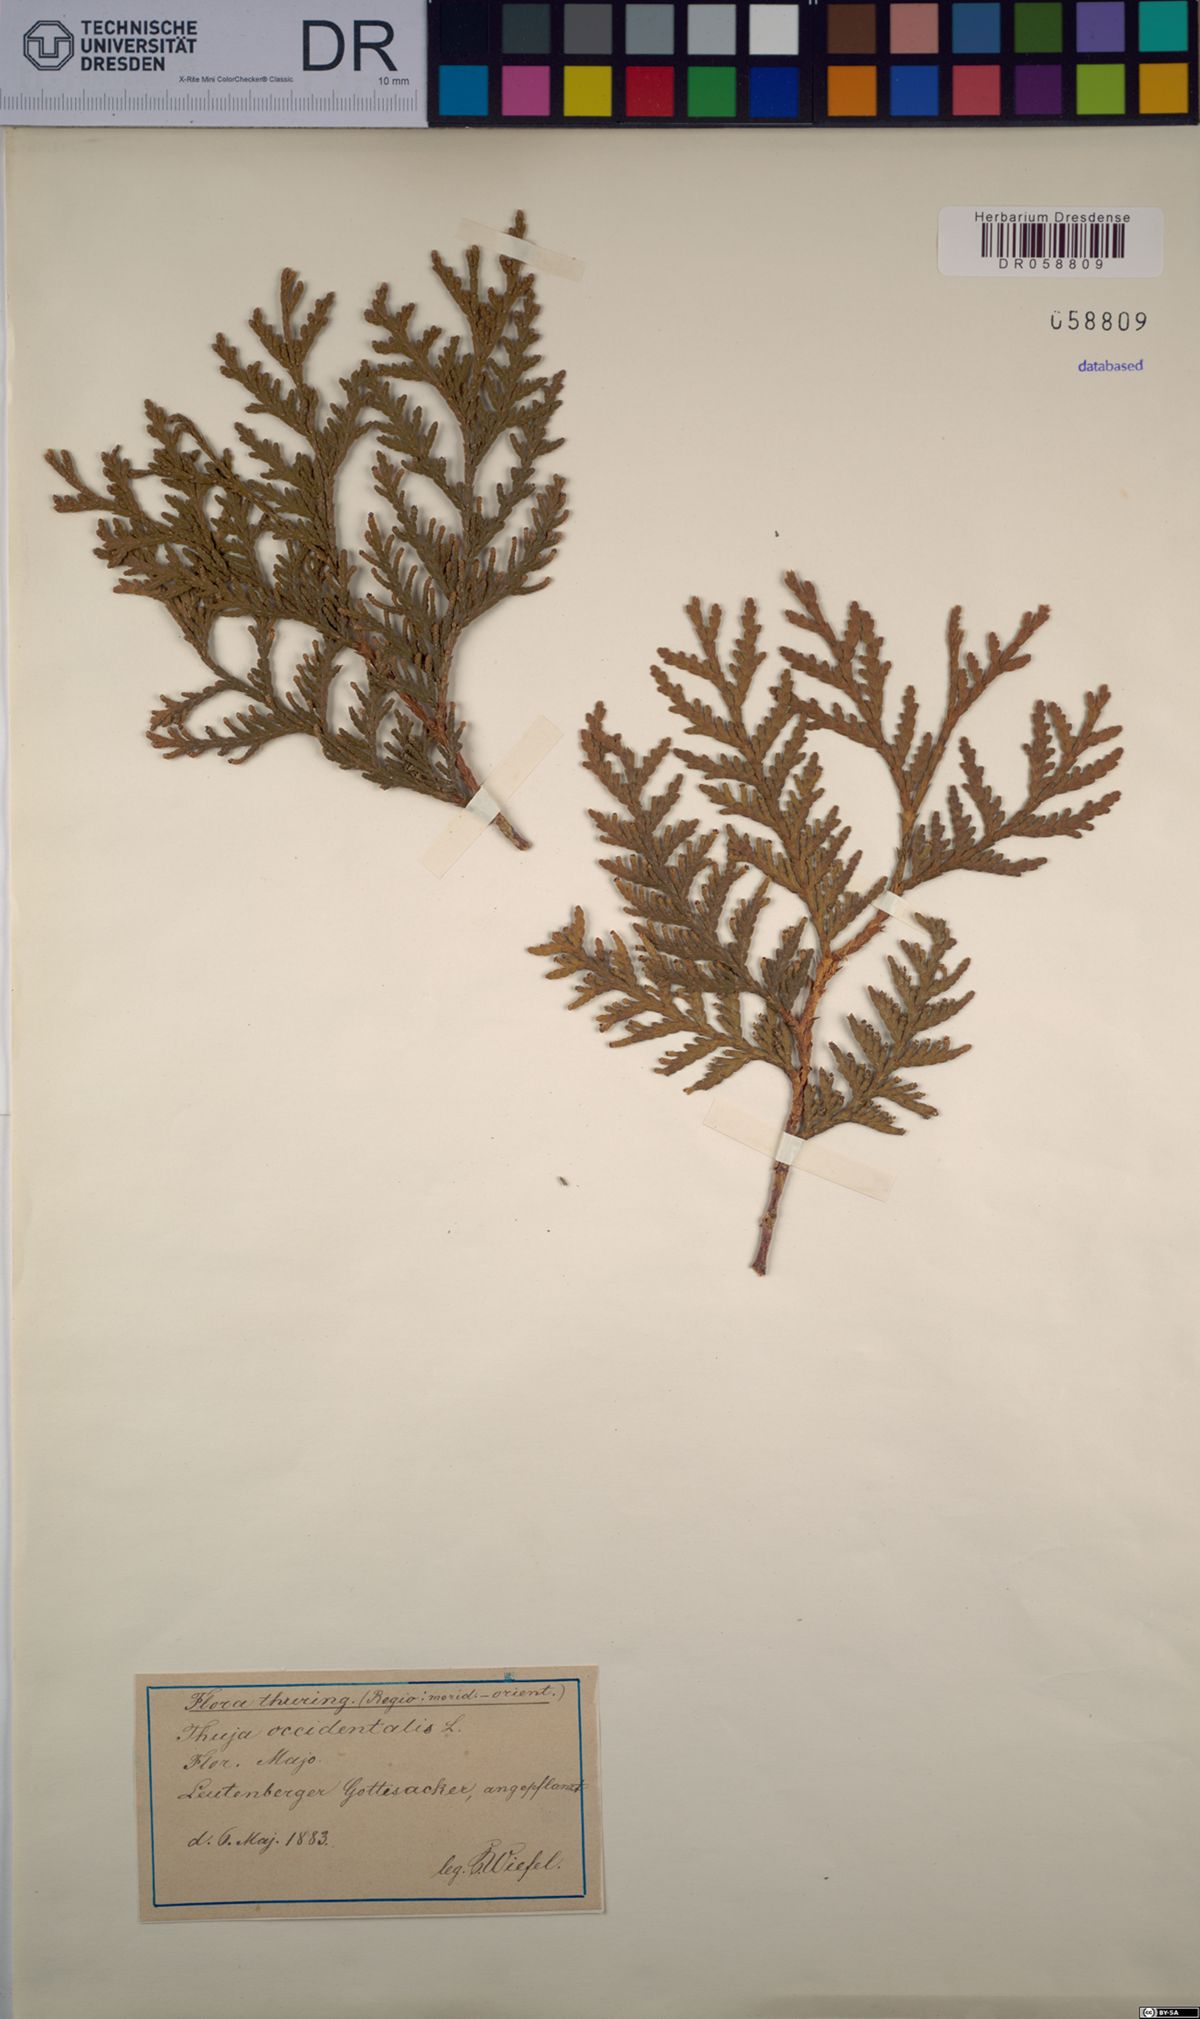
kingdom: Plantae
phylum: Tracheophyta
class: Pinopsida
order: Pinales
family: Cupressaceae
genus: Thuja
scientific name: Thuja occidentalis
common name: Northern white-cedar
